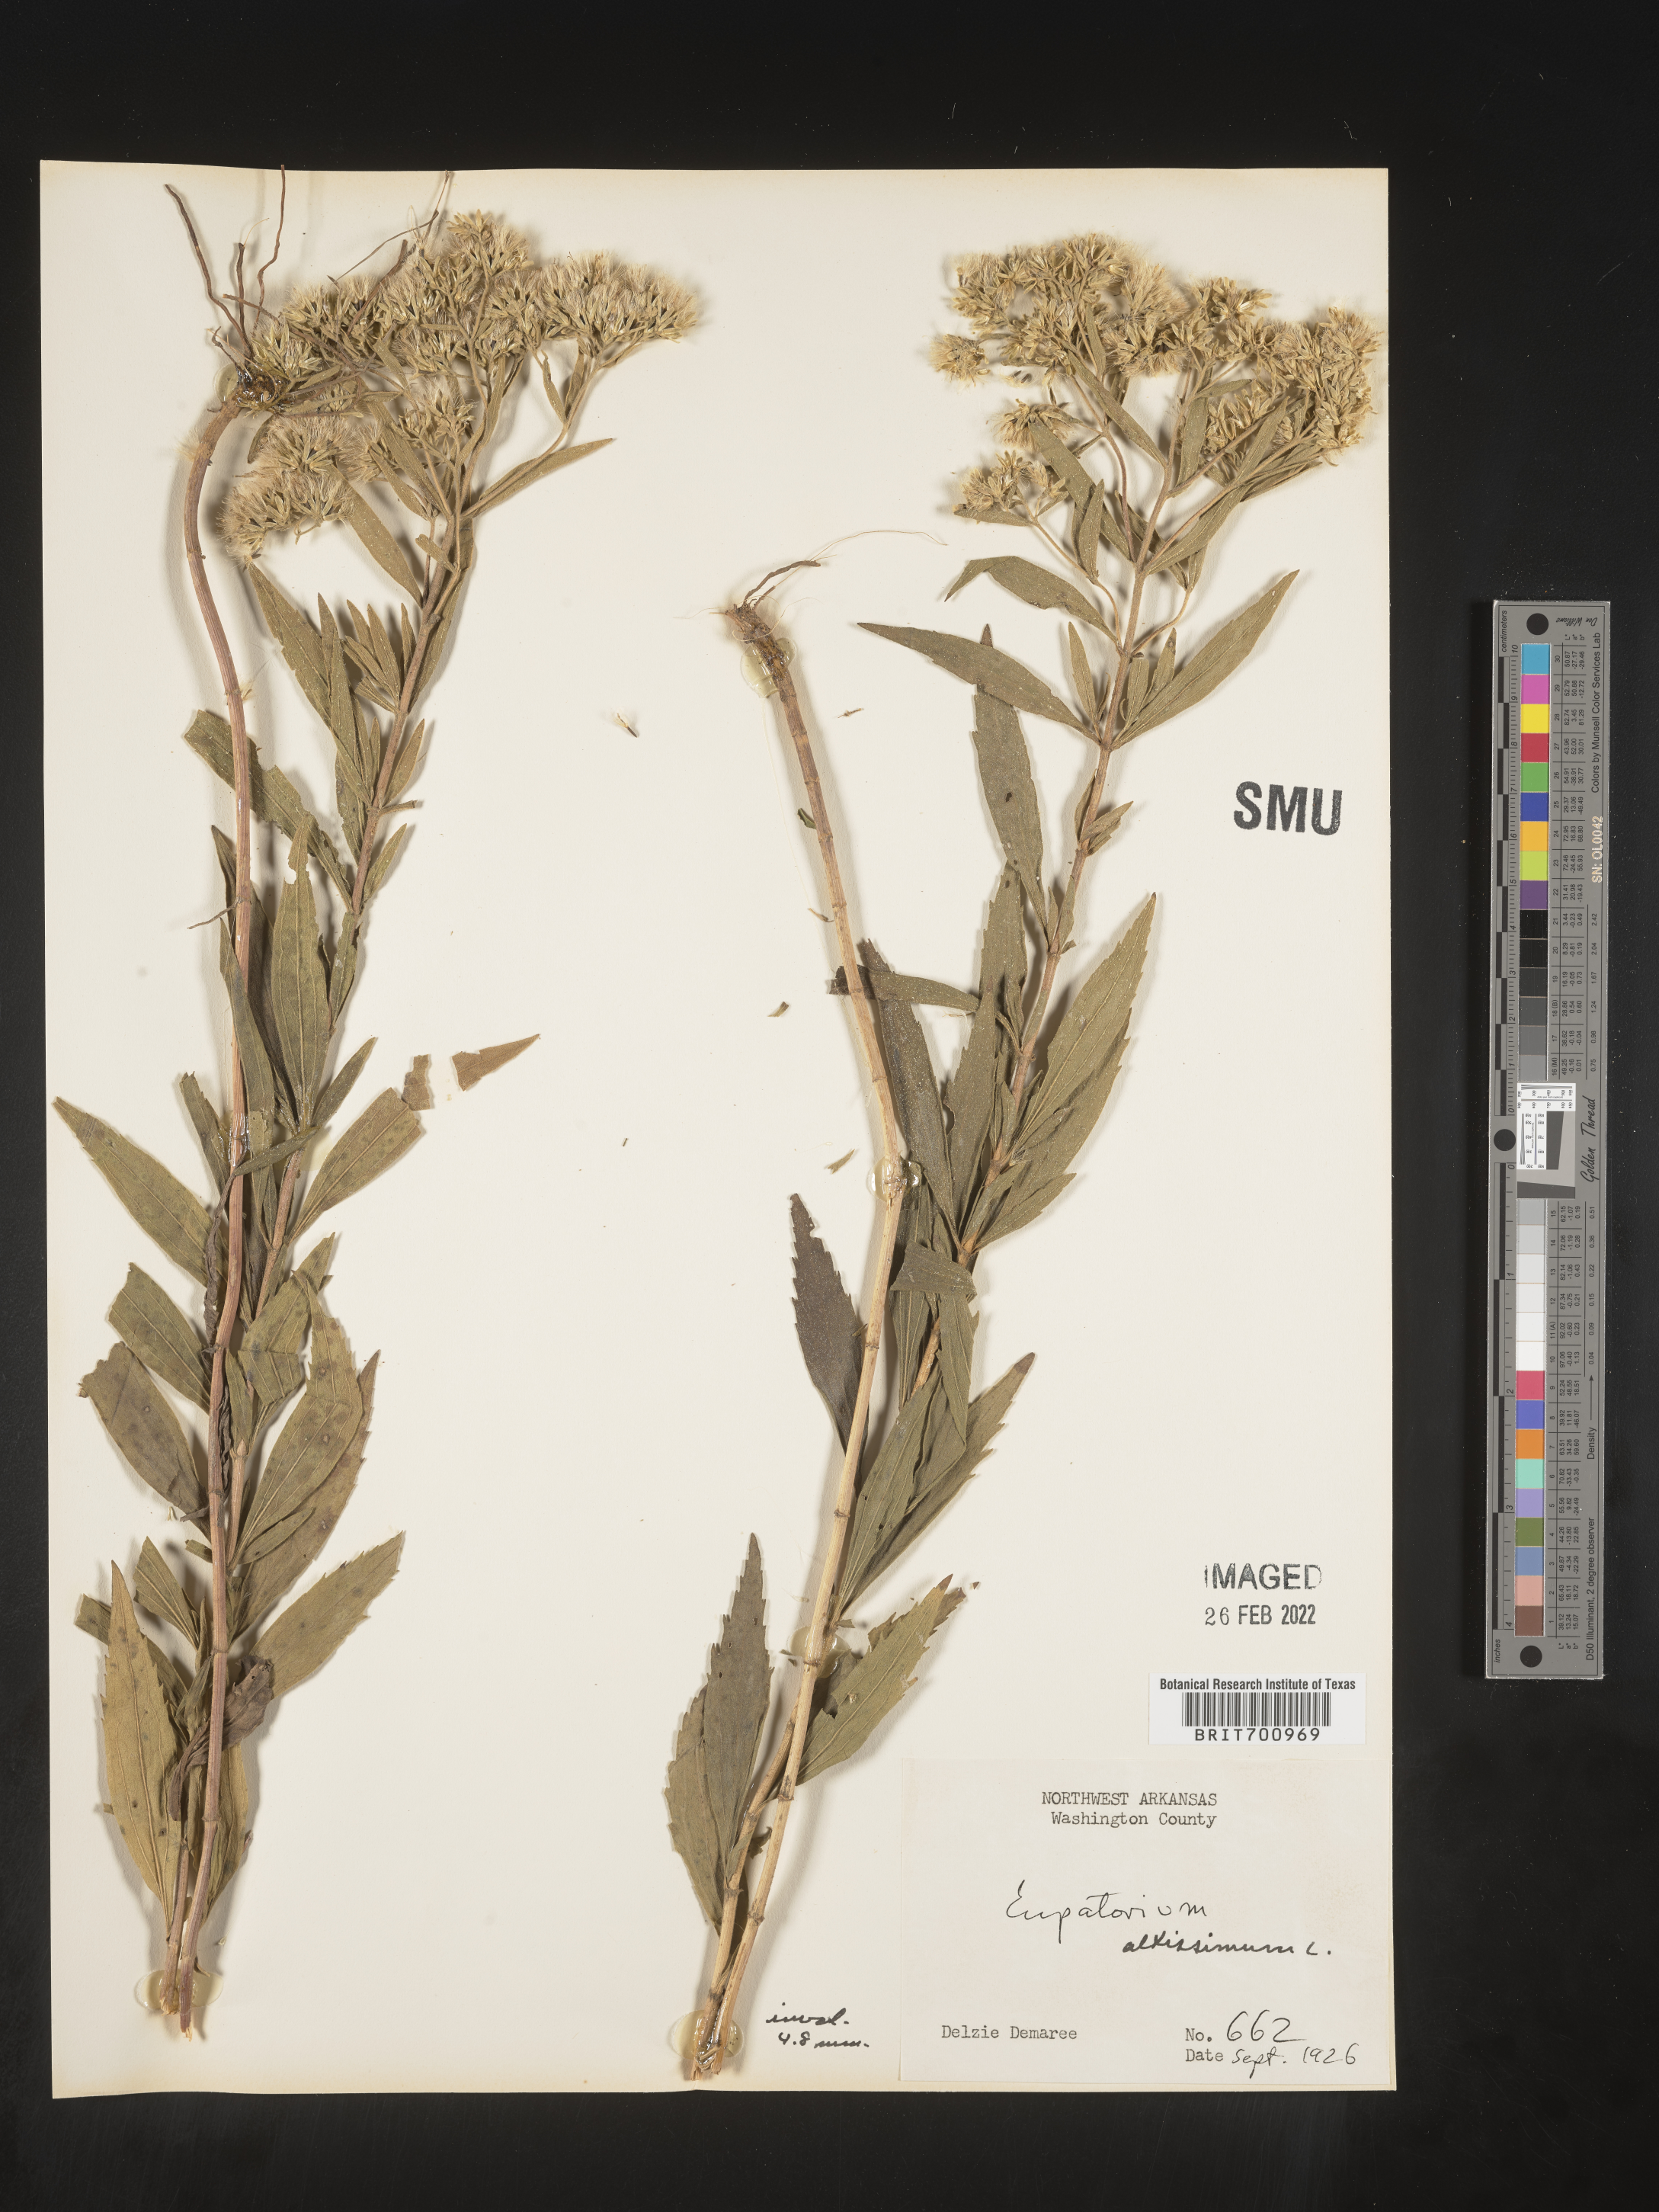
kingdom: Plantae
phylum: Tracheophyta
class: Magnoliopsida
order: Asterales
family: Asteraceae
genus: Eupatorium
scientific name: Eupatorium altissimum
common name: Tall thoroughwort
